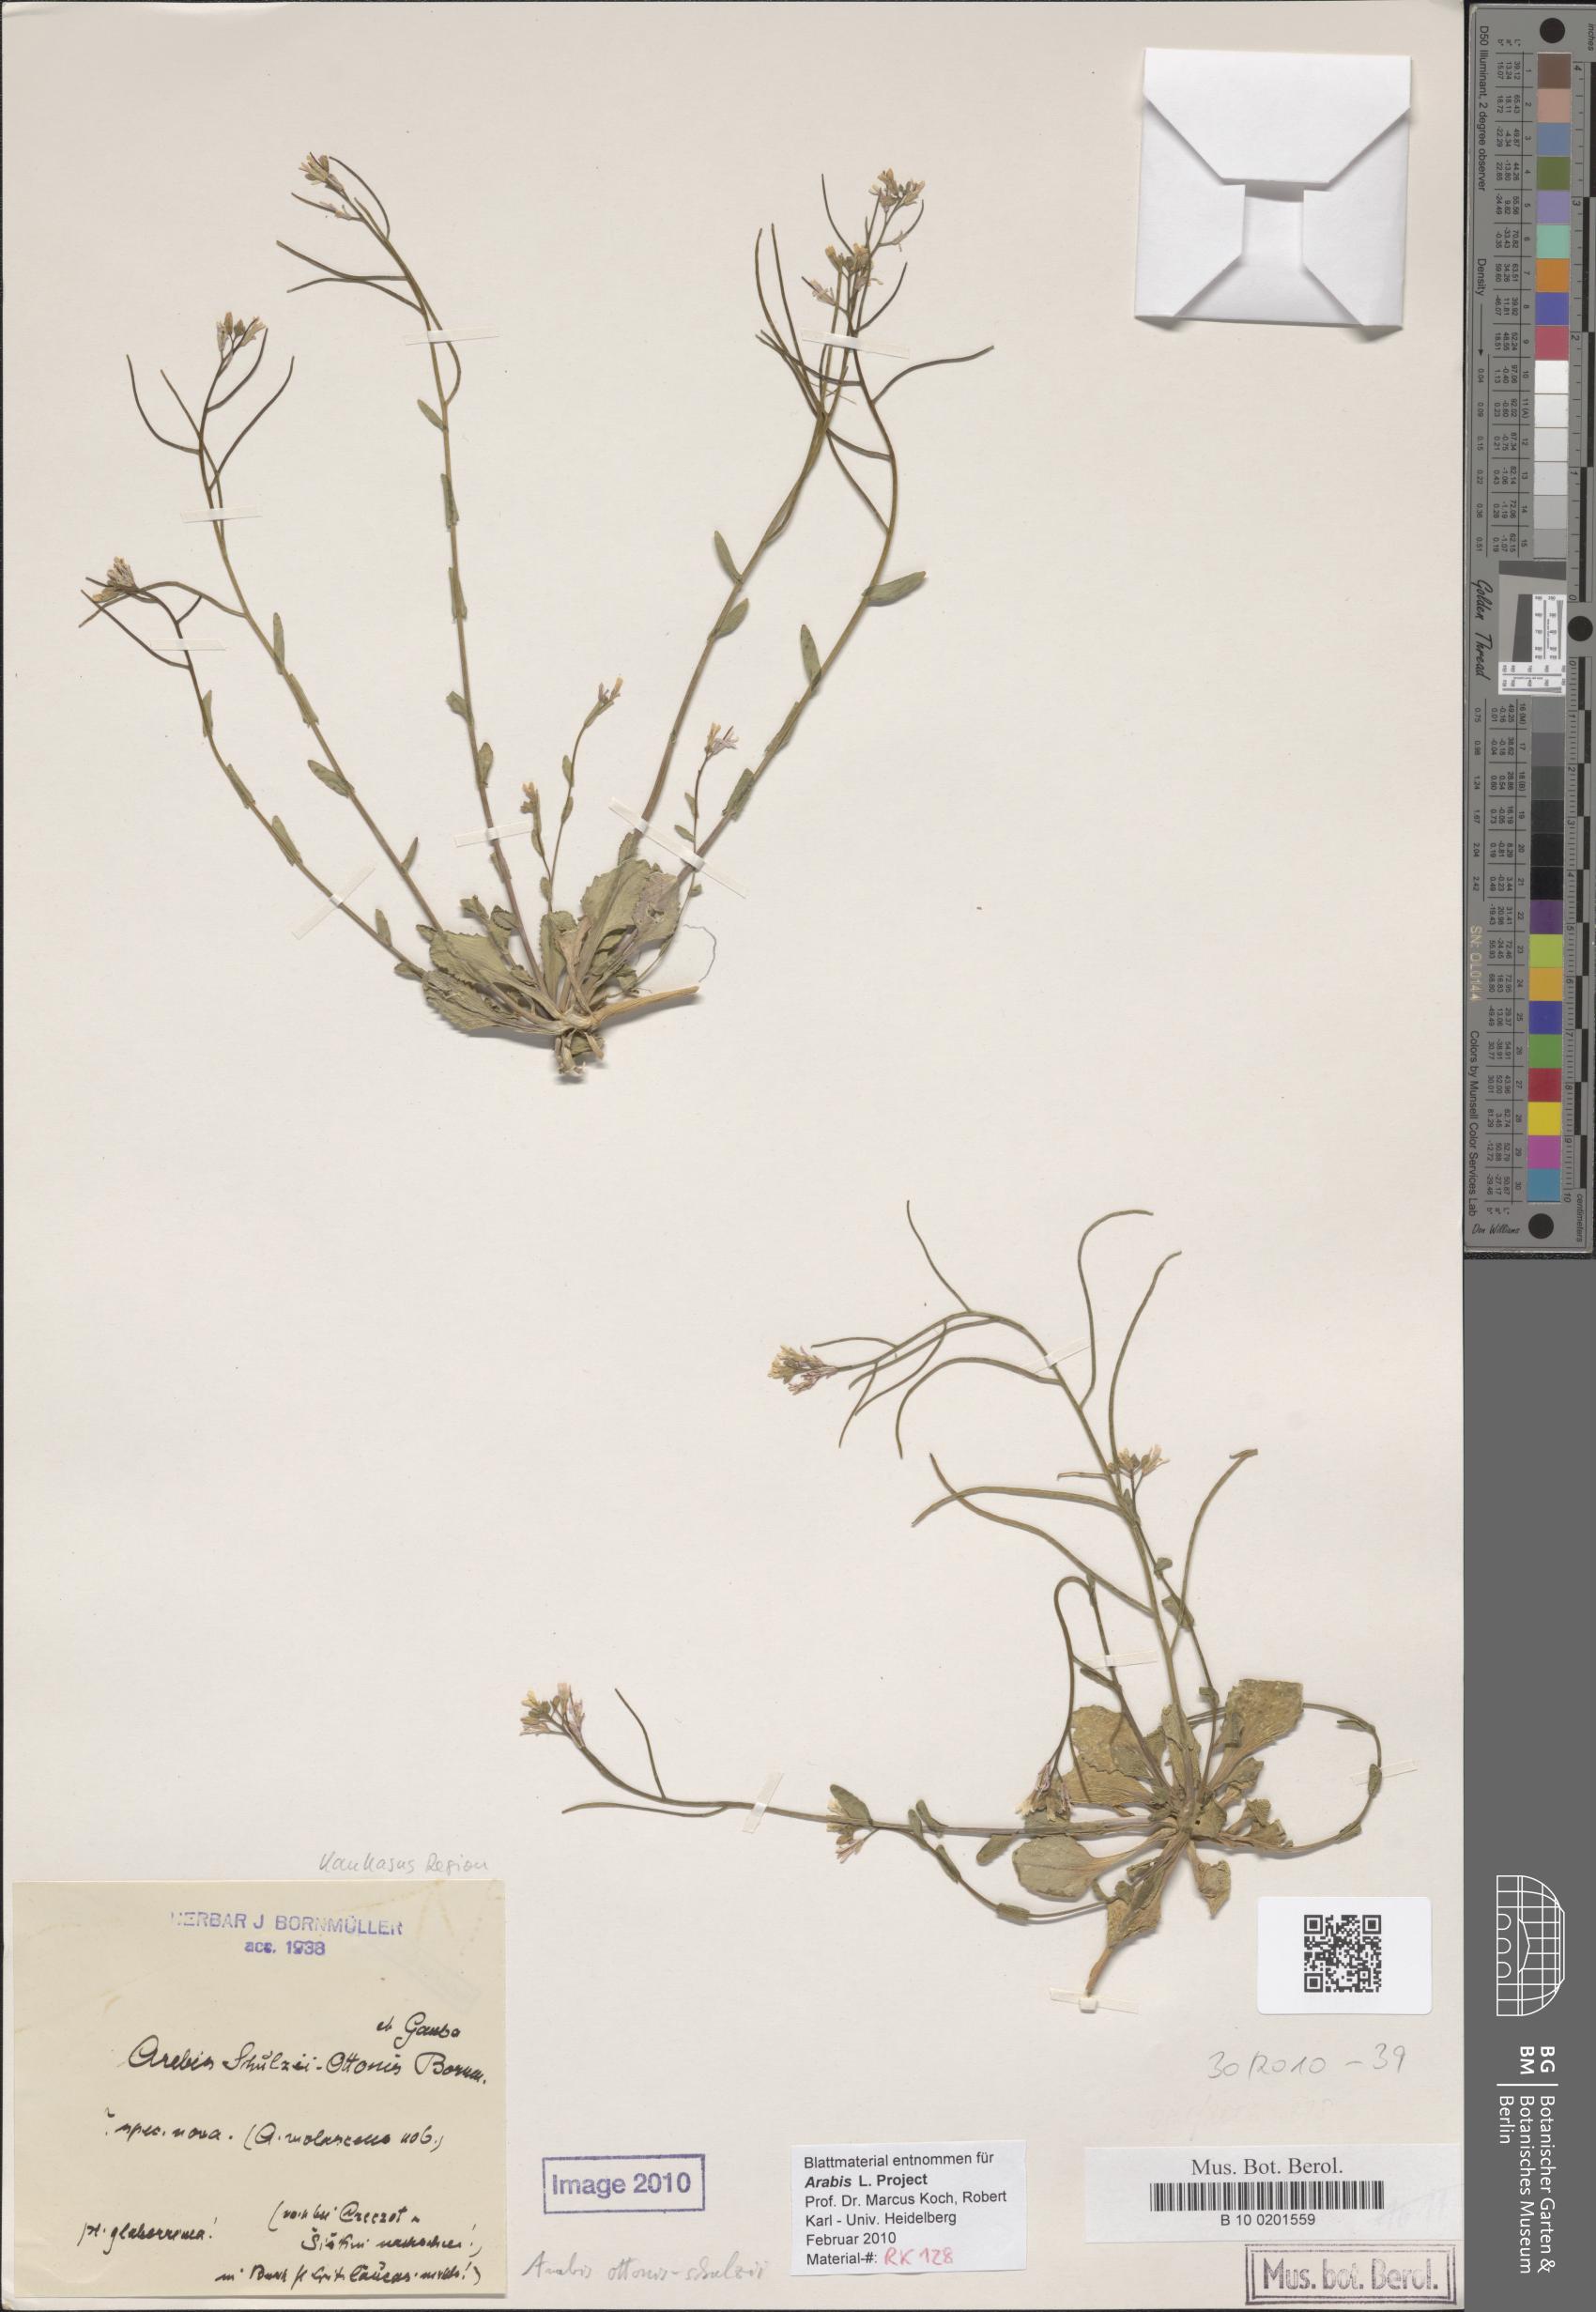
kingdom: Plantae
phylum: Tracheophyta
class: Magnoliopsida
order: Brassicales
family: Brassicaceae
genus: Arabis
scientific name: Arabis ottonis-schulzii
